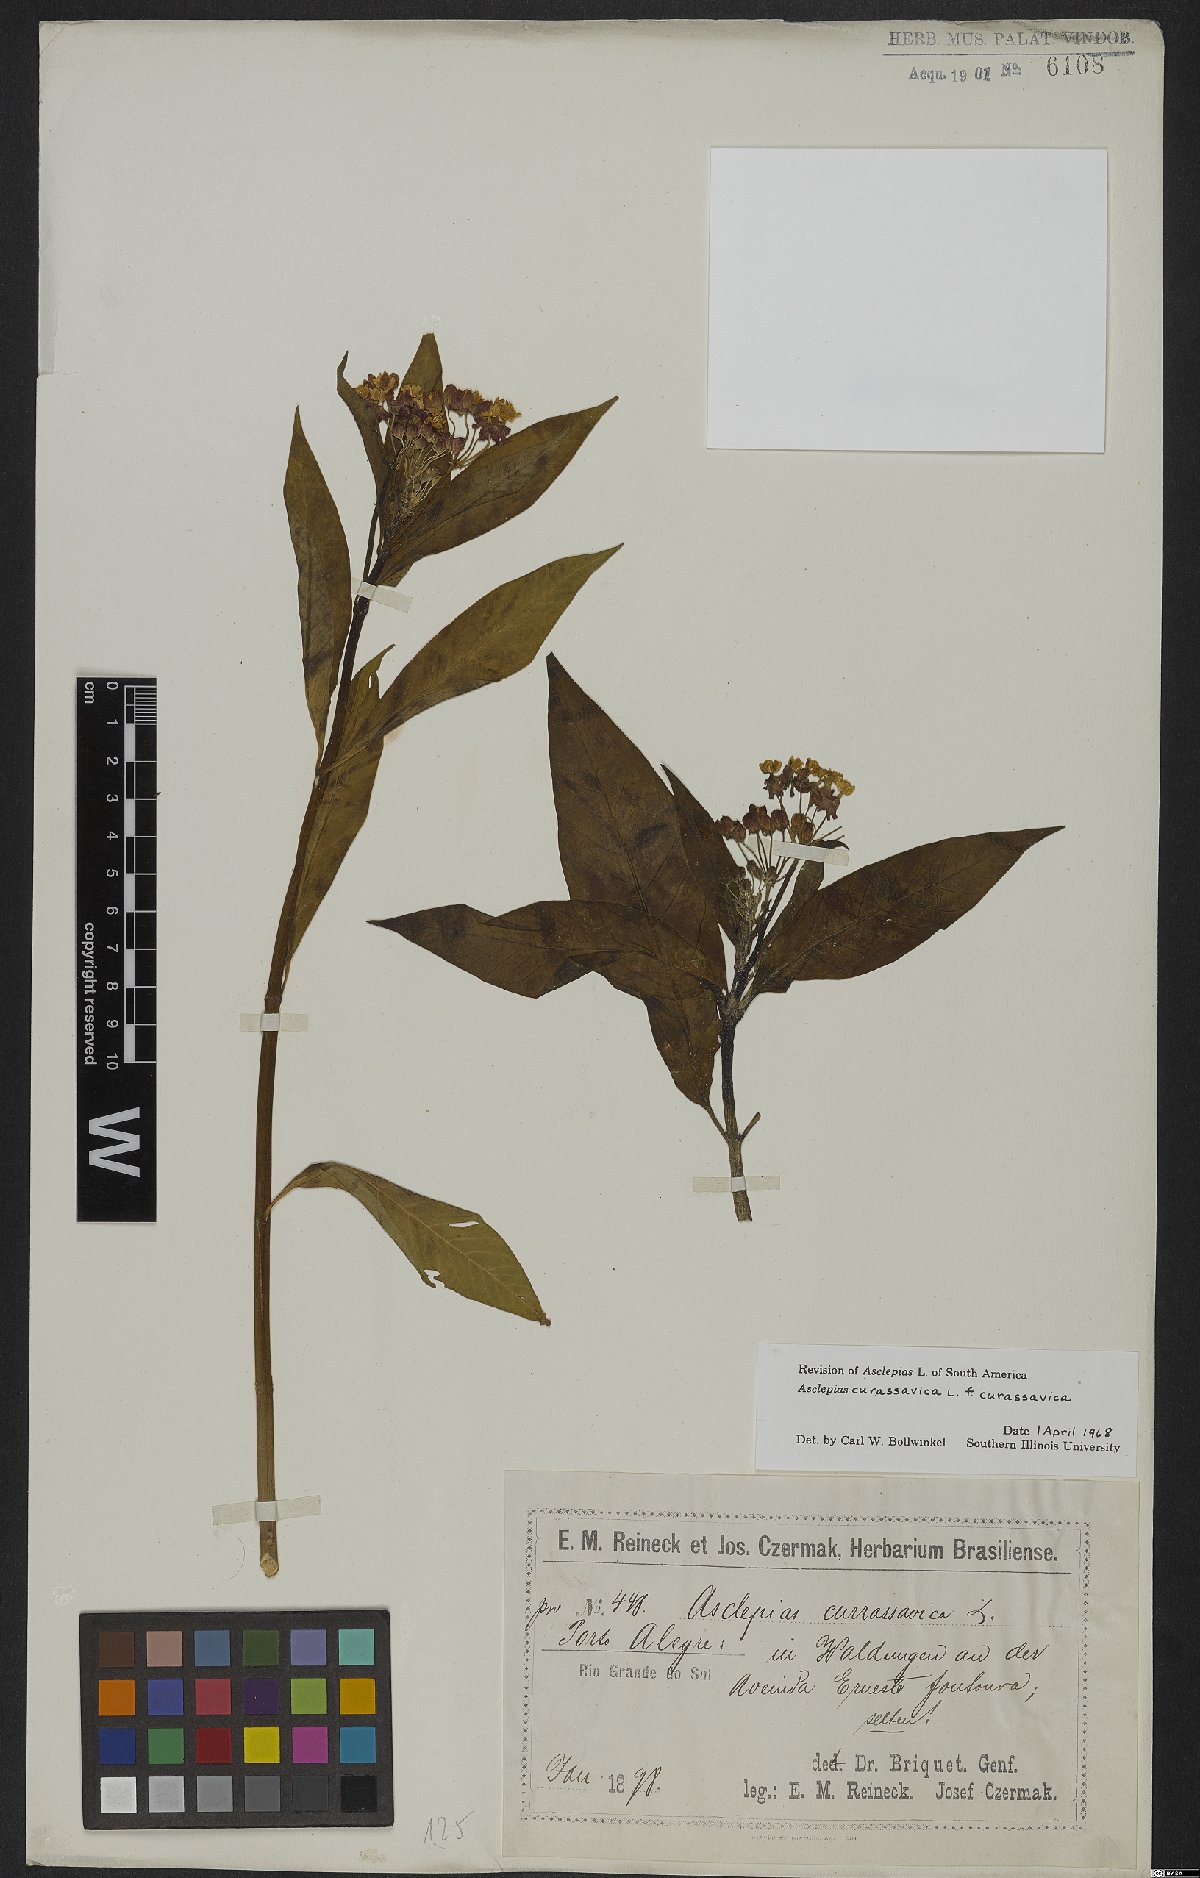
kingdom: Plantae
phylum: Tracheophyta
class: Magnoliopsida
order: Gentianales
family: Apocynaceae
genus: Asclepias
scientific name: Asclepias curassavica
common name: Bloodflower
